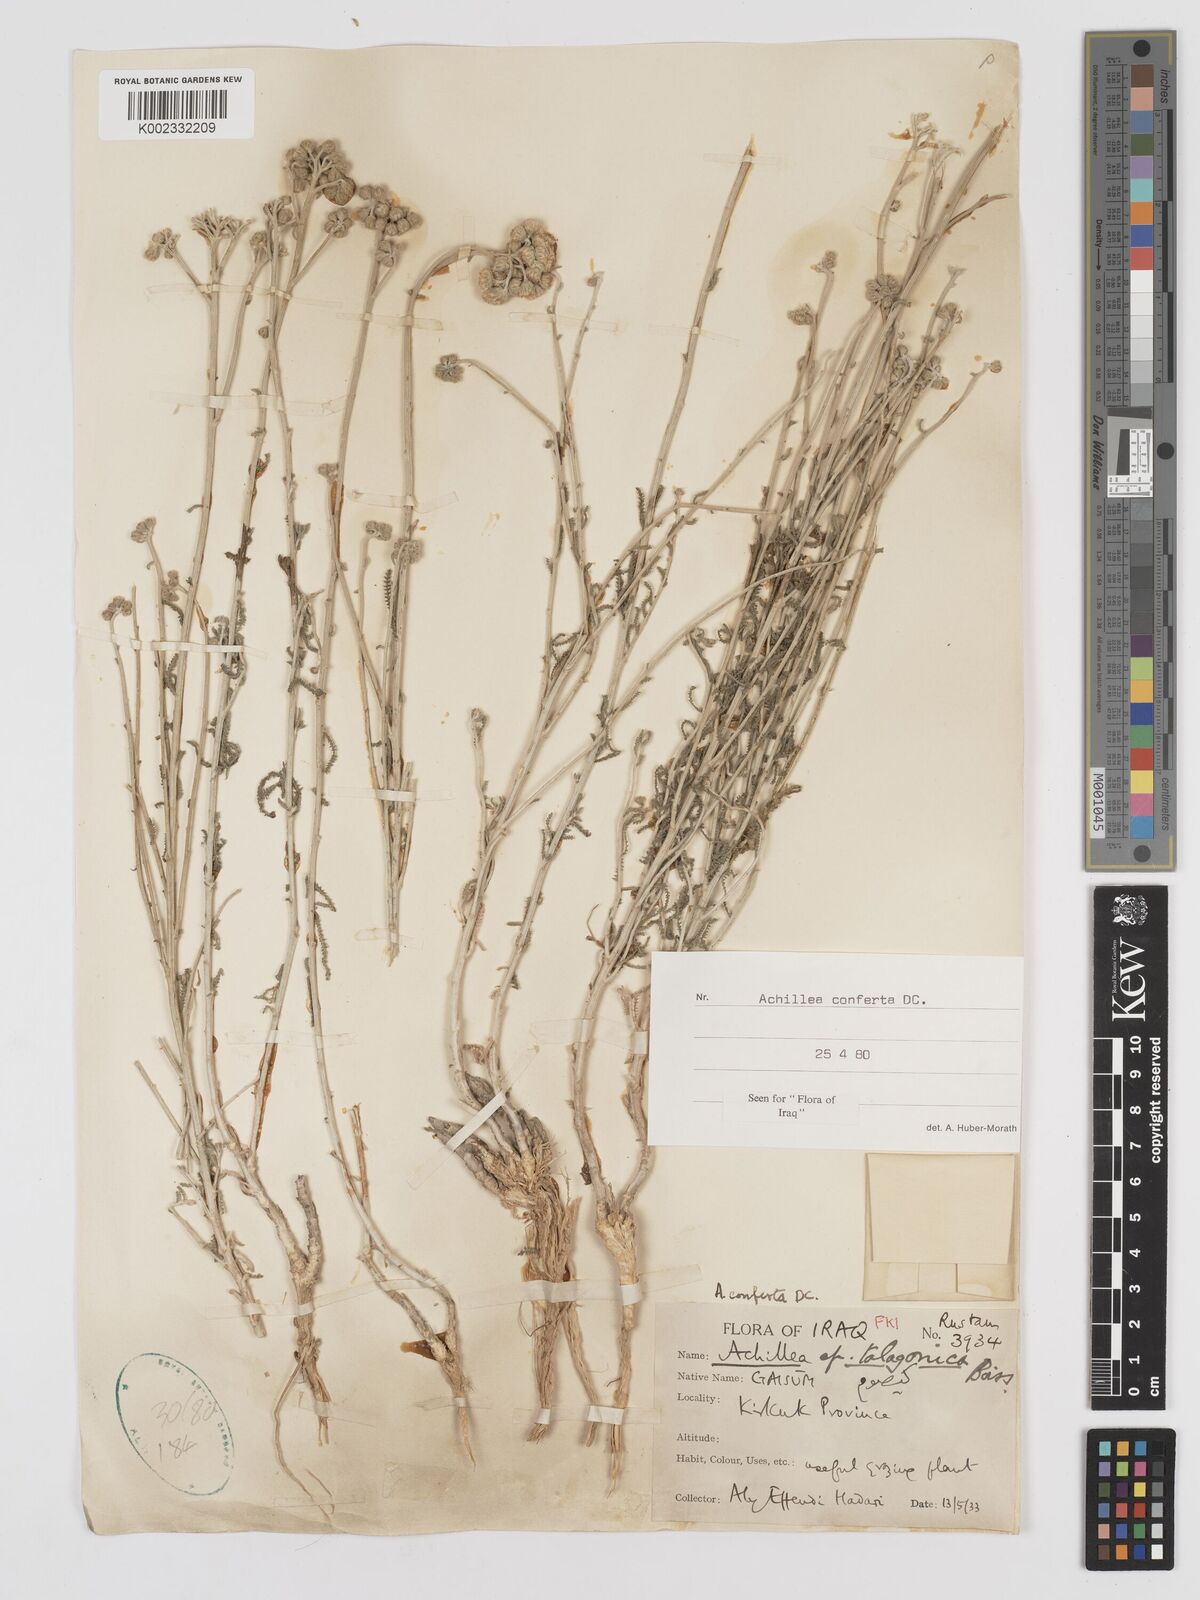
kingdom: Plantae
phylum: Tracheophyta
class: Magnoliopsida
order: Asterales
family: Asteraceae
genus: Achillea
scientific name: Achillea conferta
